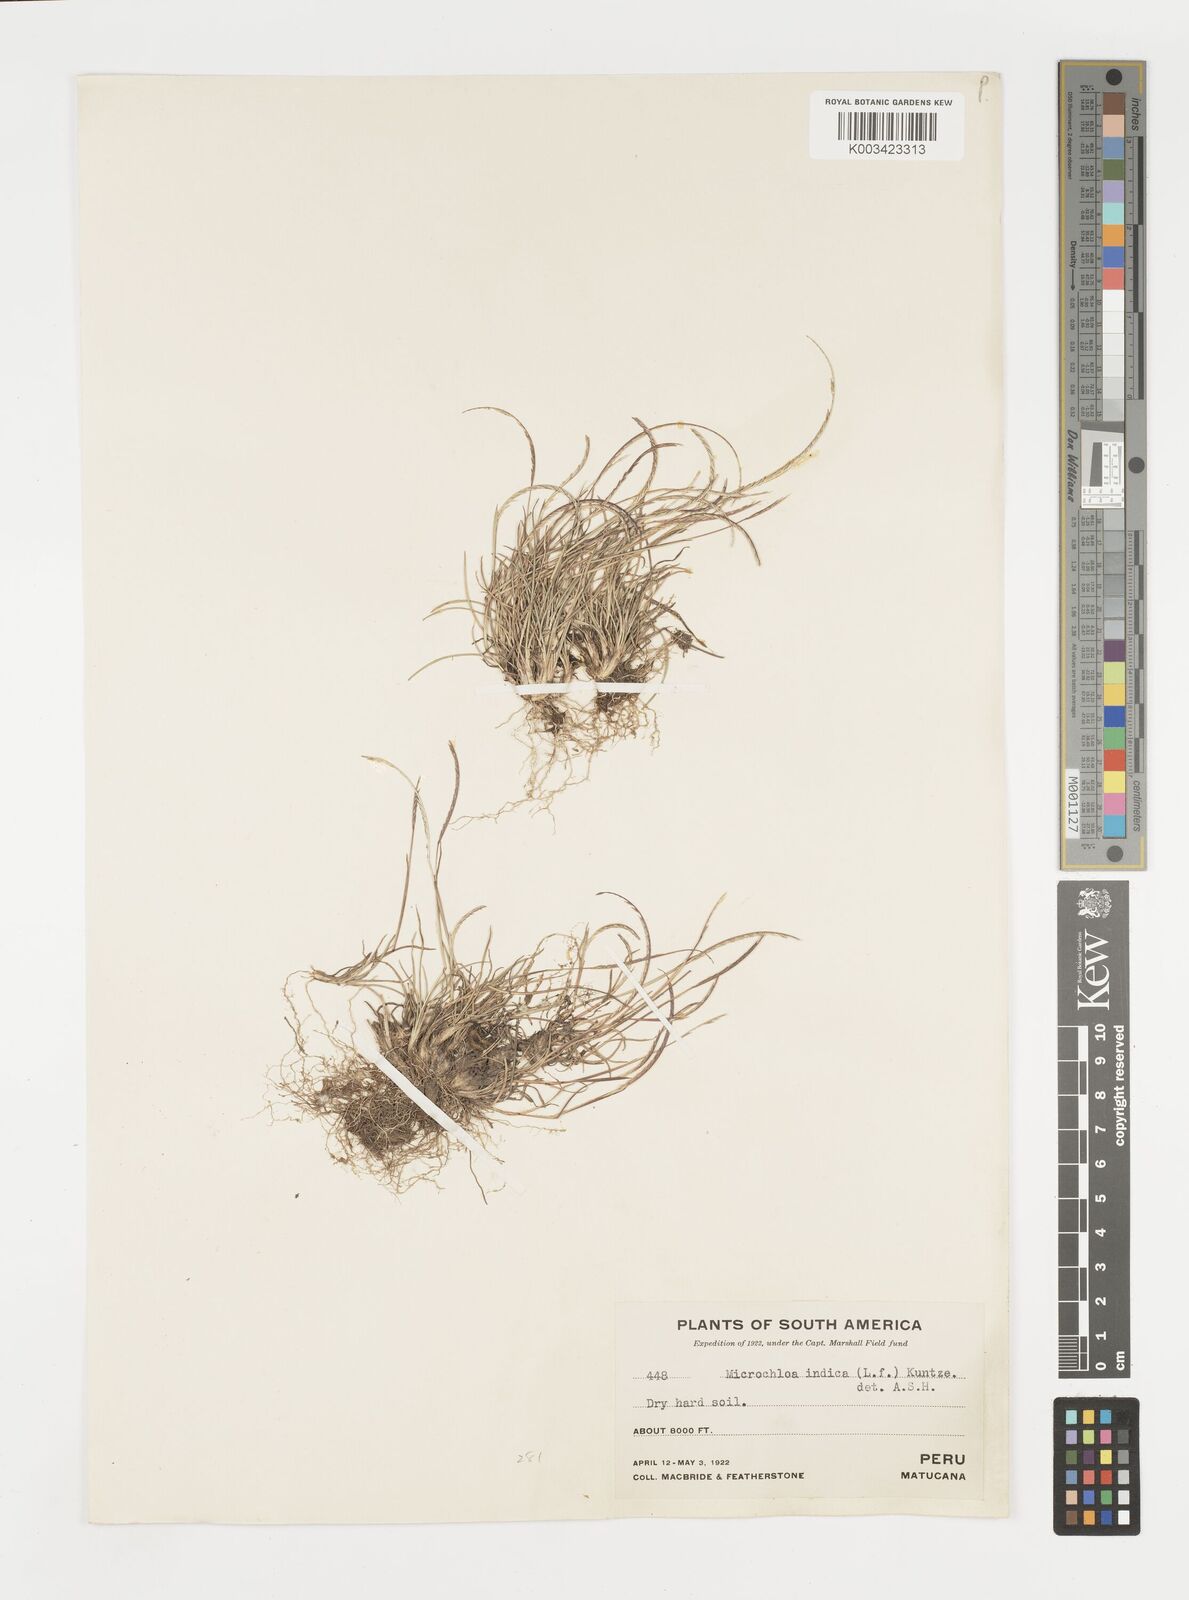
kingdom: Plantae
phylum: Tracheophyta
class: Liliopsida
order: Poales
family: Poaceae
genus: Microchloa
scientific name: Microchloa indica
